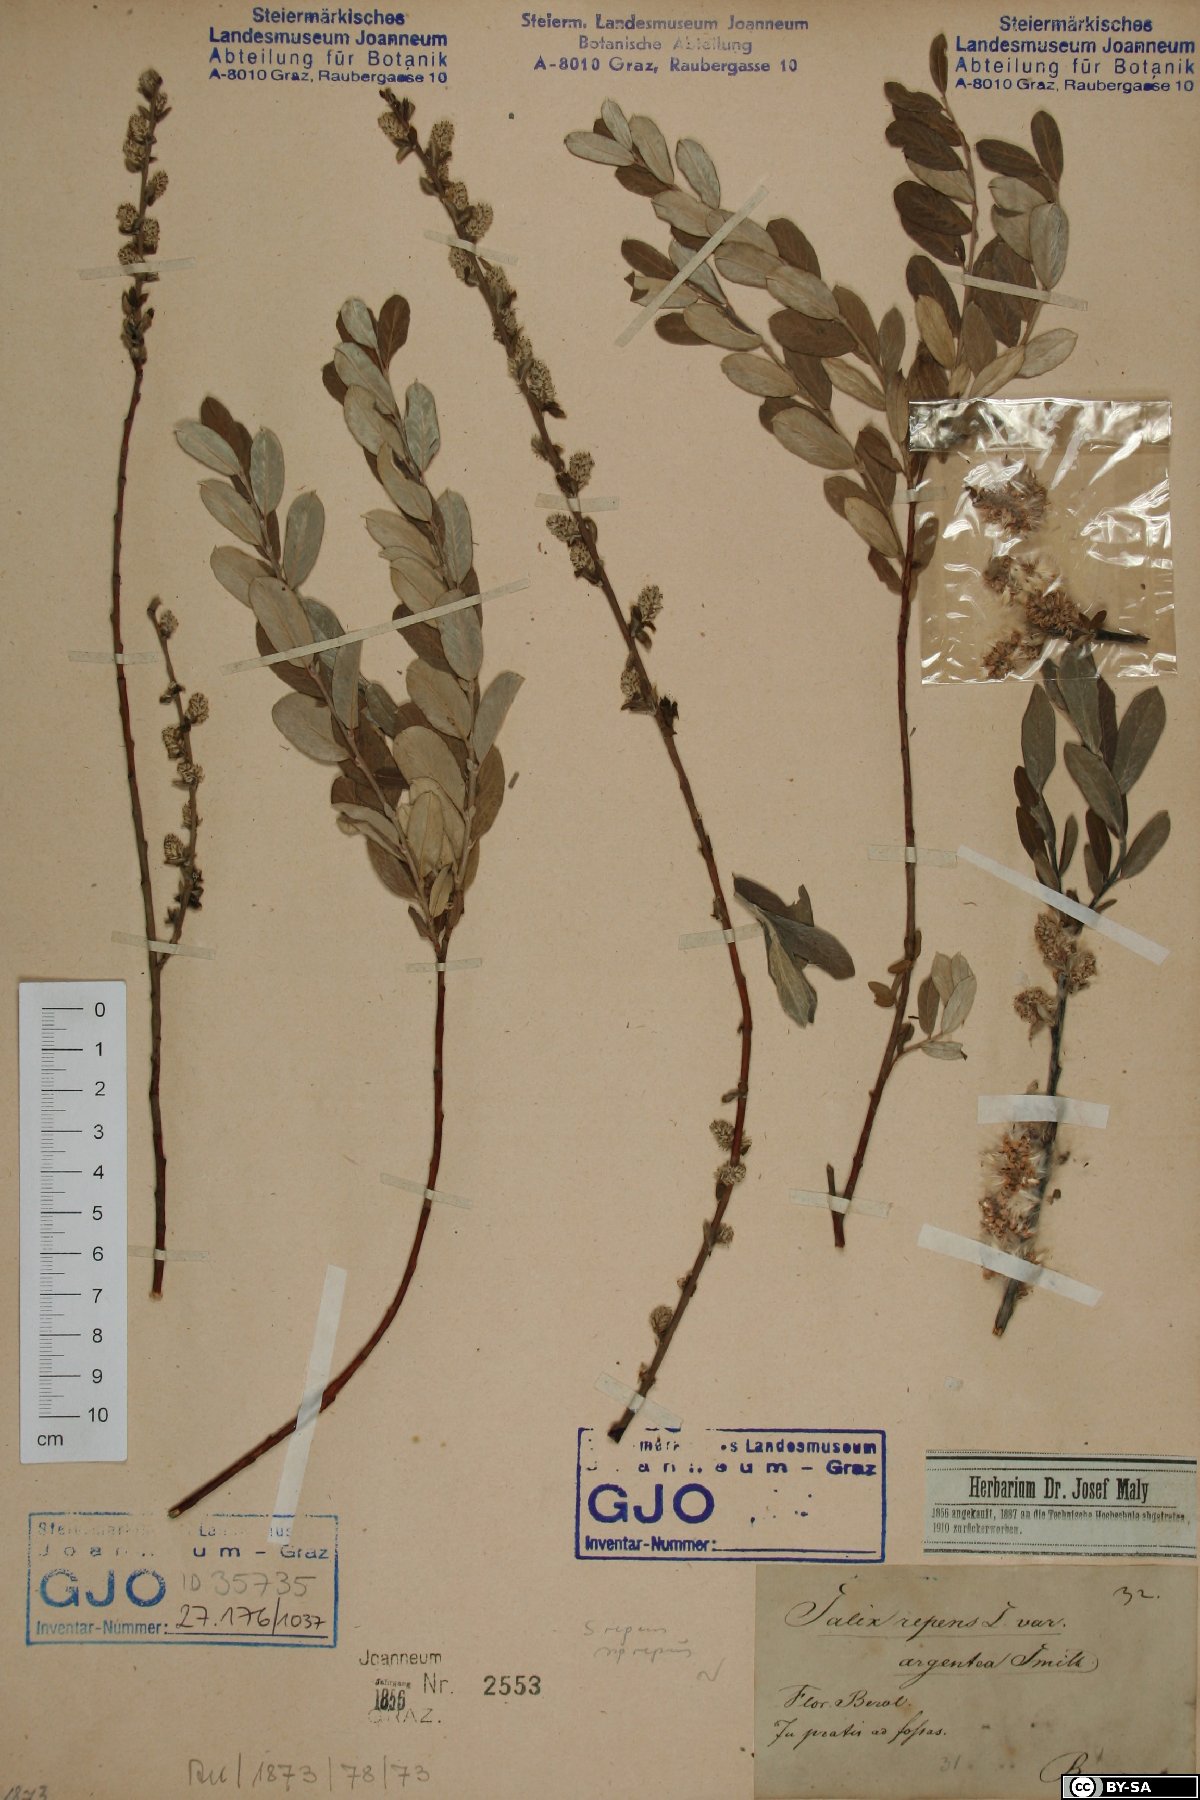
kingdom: Plantae
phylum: Tracheophyta
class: Magnoliopsida
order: Malpighiales
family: Salicaceae
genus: Salix
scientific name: Salix repens
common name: Creeping willow
